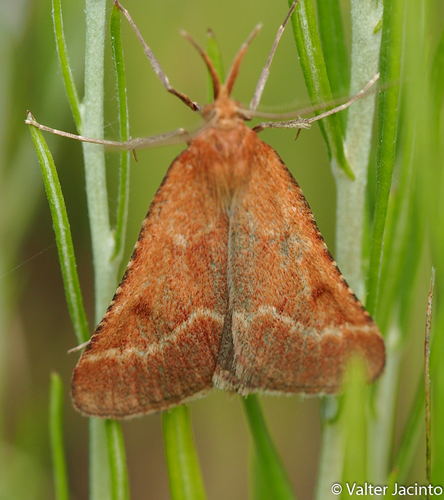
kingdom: Animalia
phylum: Arthropoda
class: Insecta
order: Lepidoptera
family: Pyralidae
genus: Synaphe
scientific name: Synaphe lorquinalis
